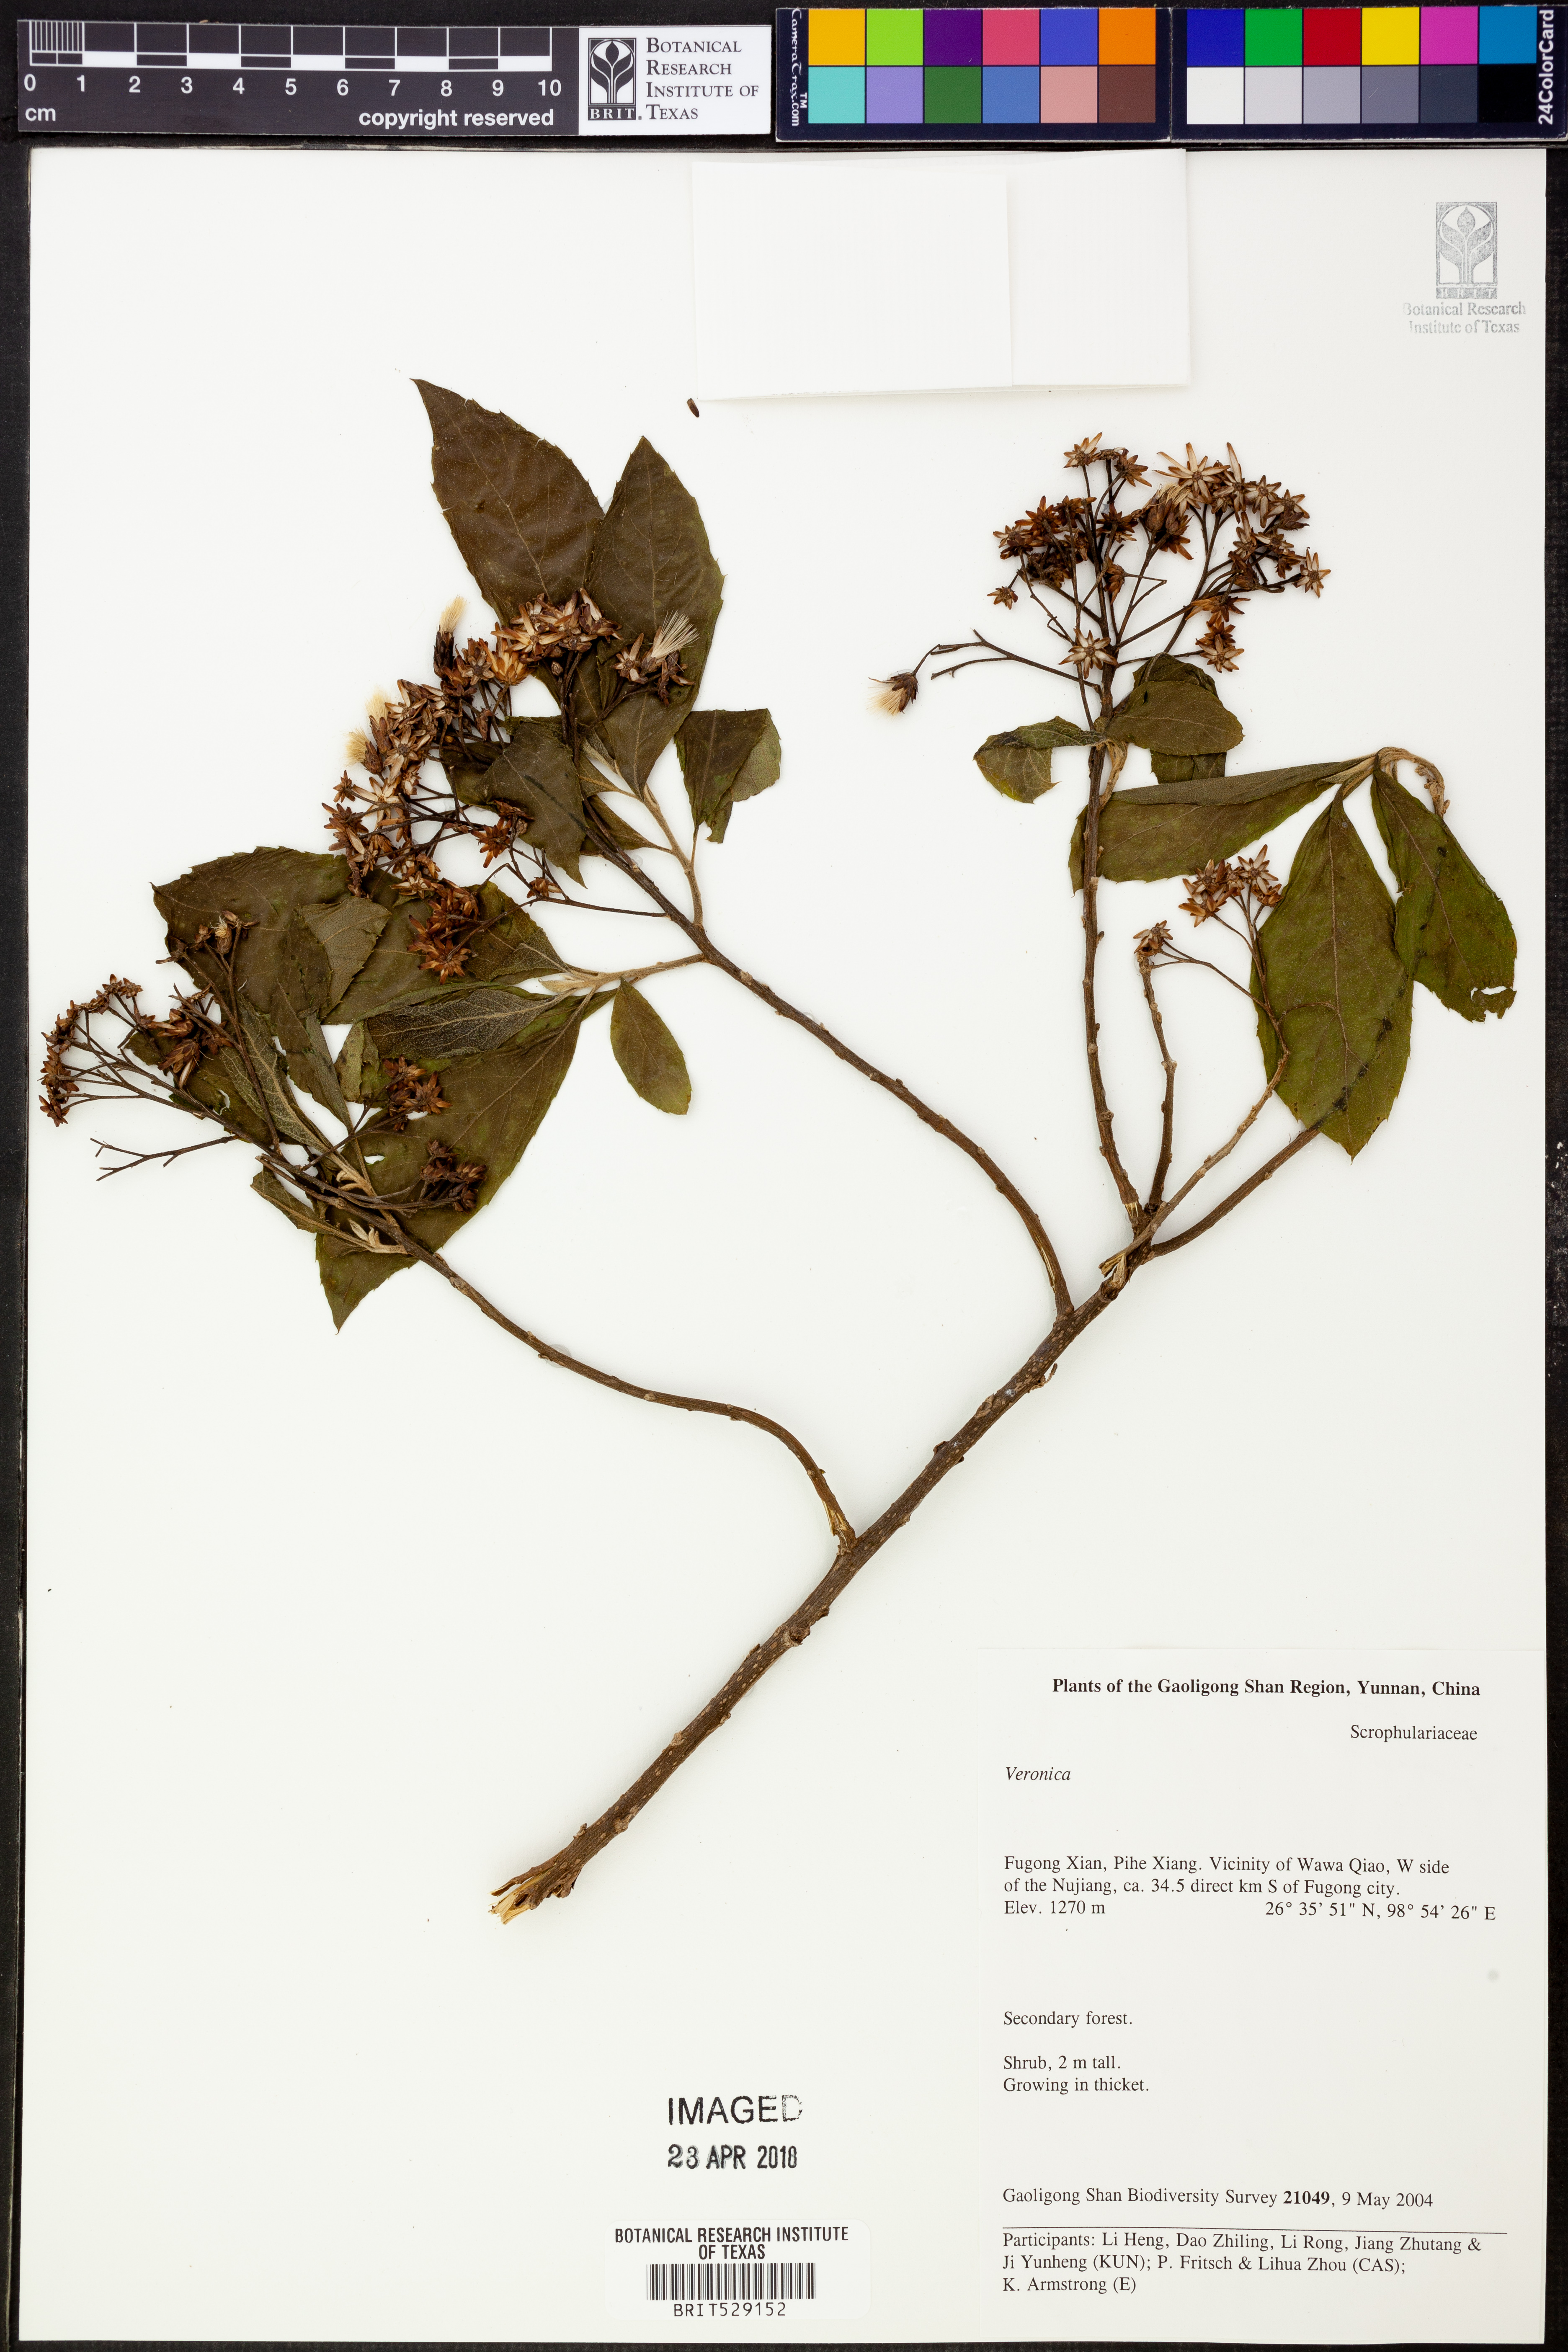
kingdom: Plantae
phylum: Tracheophyta
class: Magnoliopsida
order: Lamiales
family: Plantaginaceae
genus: Veronica
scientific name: Veronica
